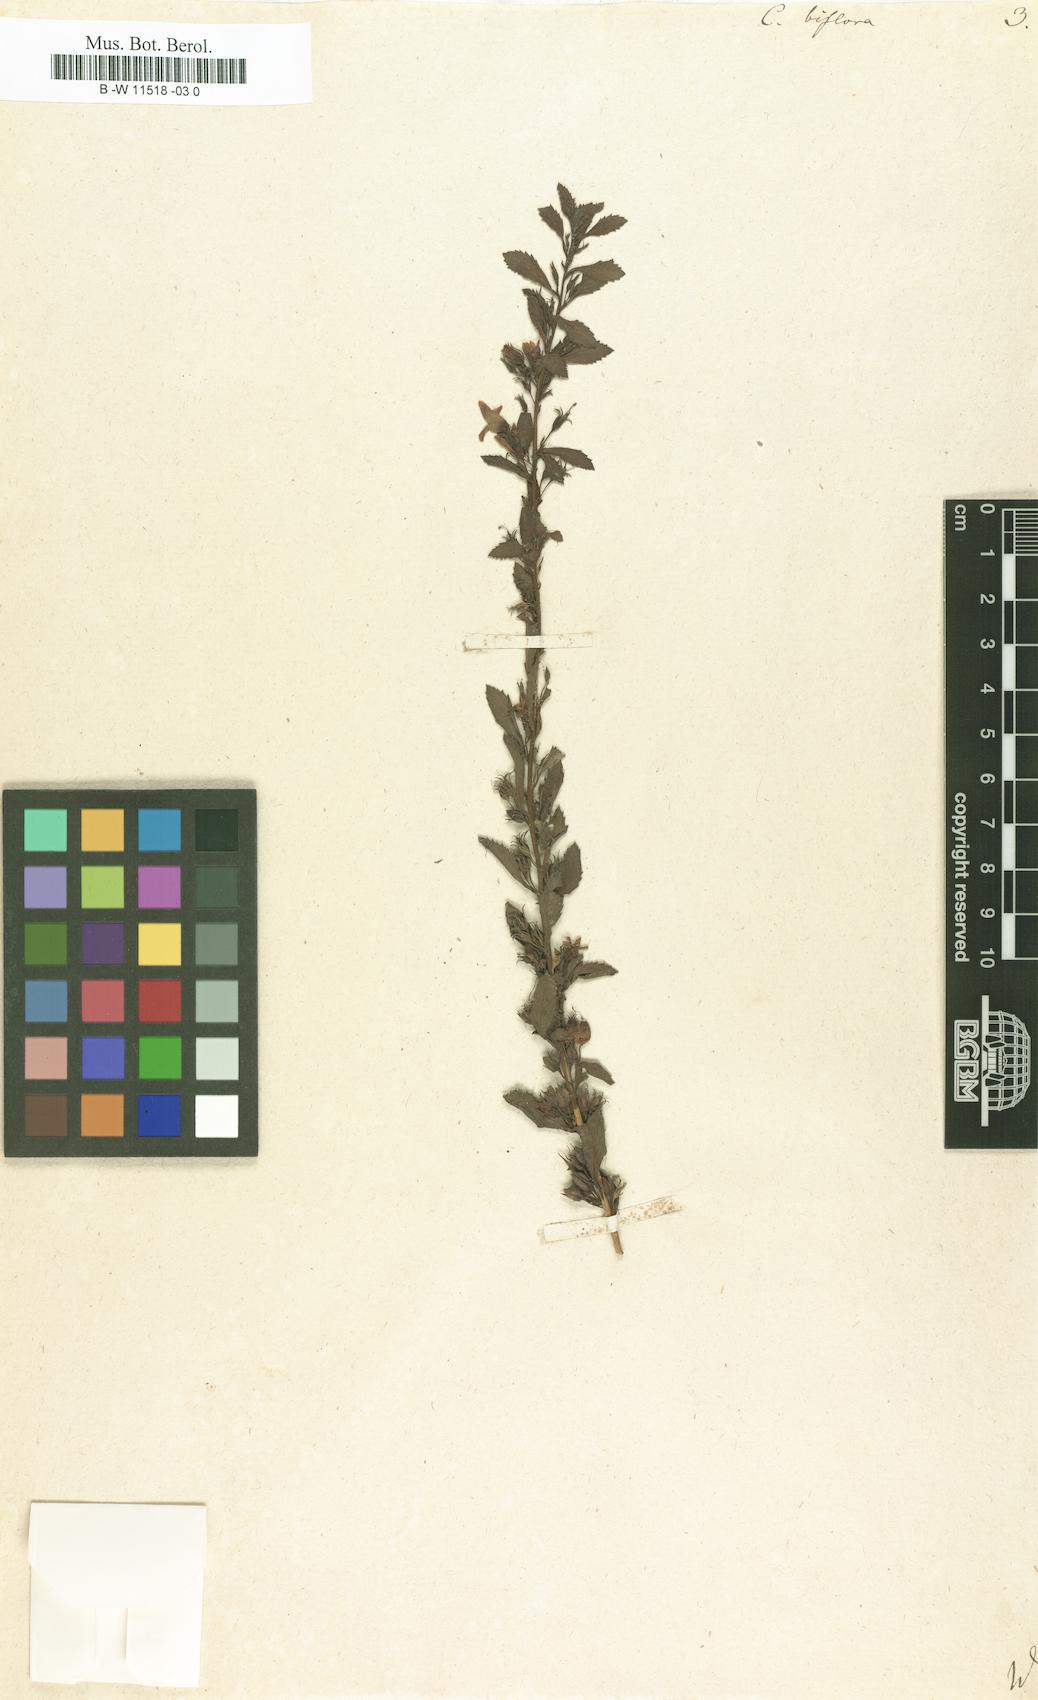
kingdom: Plantae
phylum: Tracheophyta
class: Magnoliopsida
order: Lamiales
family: Scrophulariaceae
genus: Capraria
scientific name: Capraria biflora
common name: Goatweed
